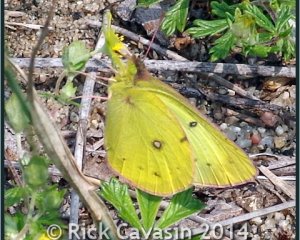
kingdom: Animalia
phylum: Arthropoda
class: Insecta
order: Lepidoptera
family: Pieridae
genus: Colias
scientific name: Colias philodice
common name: Clouded Sulphur
